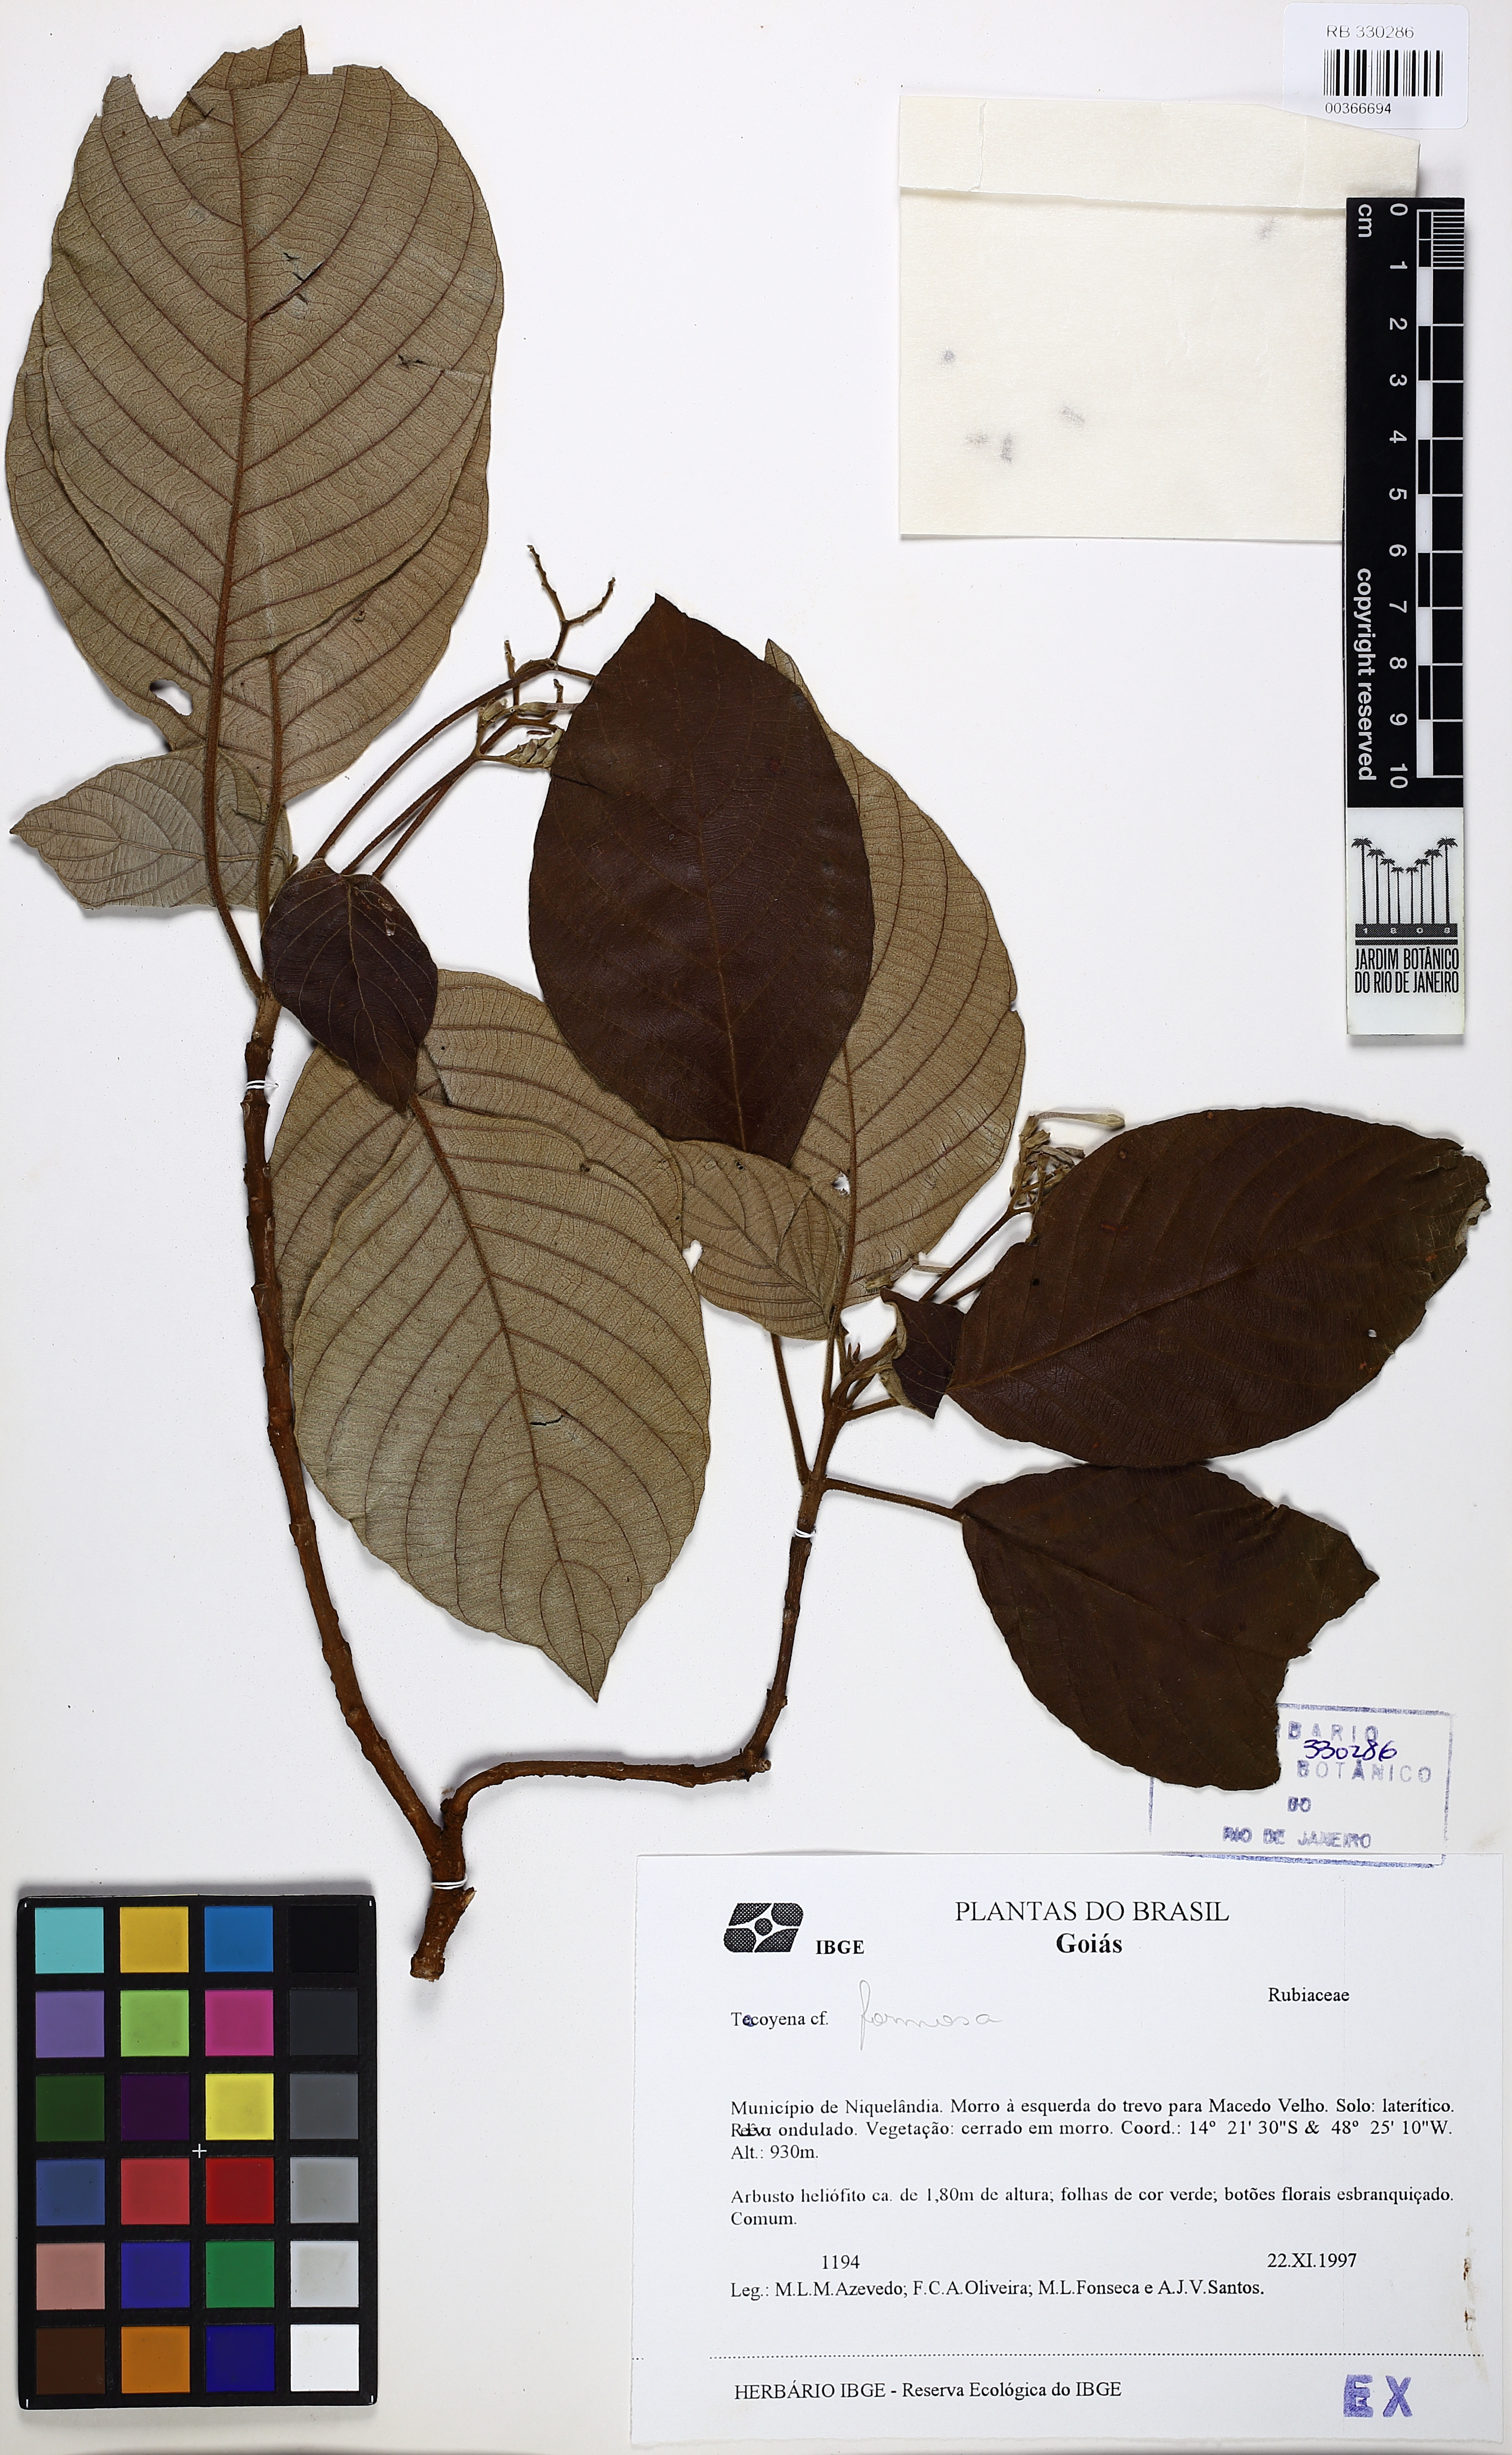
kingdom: Plantae
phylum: Tracheophyta
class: Magnoliopsida
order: Gentianales
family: Rubiaceae
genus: Guettarda
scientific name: Guettarda
